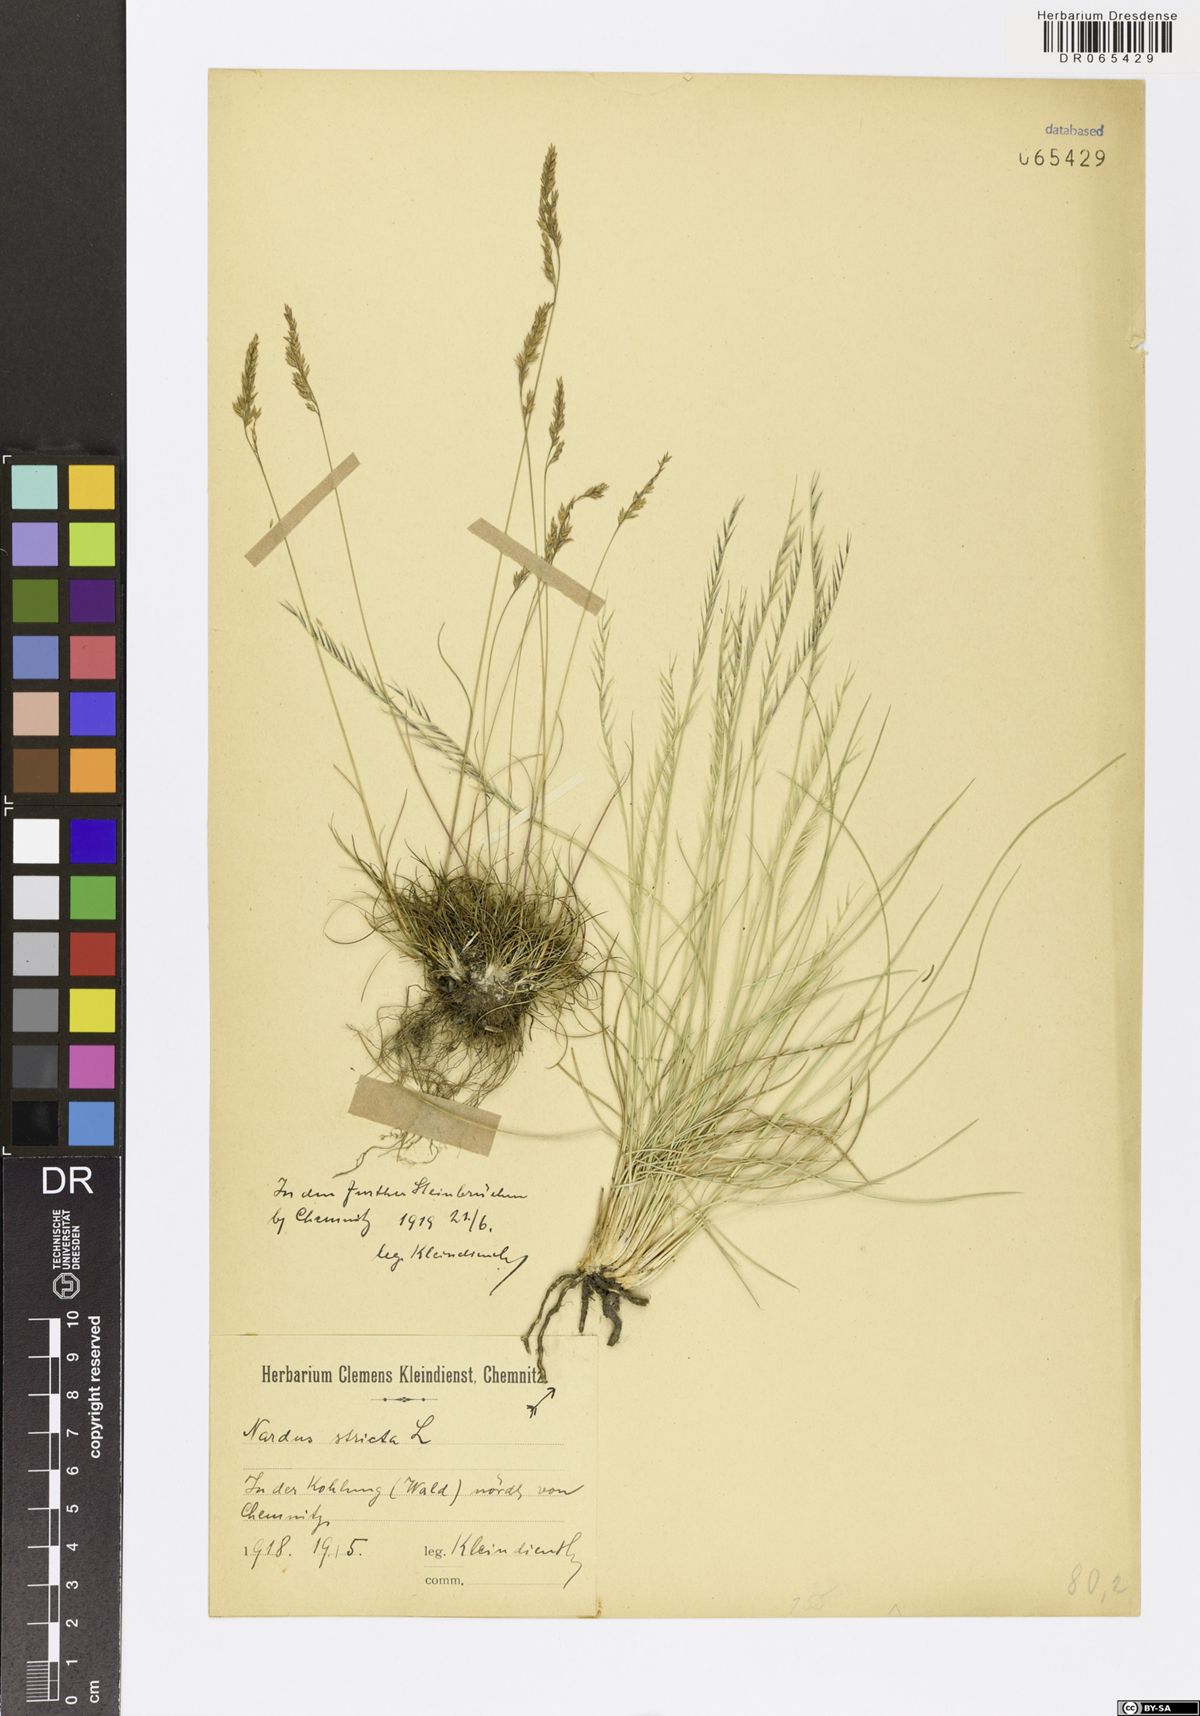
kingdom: Plantae
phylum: Tracheophyta
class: Liliopsida
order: Poales
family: Poaceae
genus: Nardus
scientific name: Nardus stricta
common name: Mat-grass
